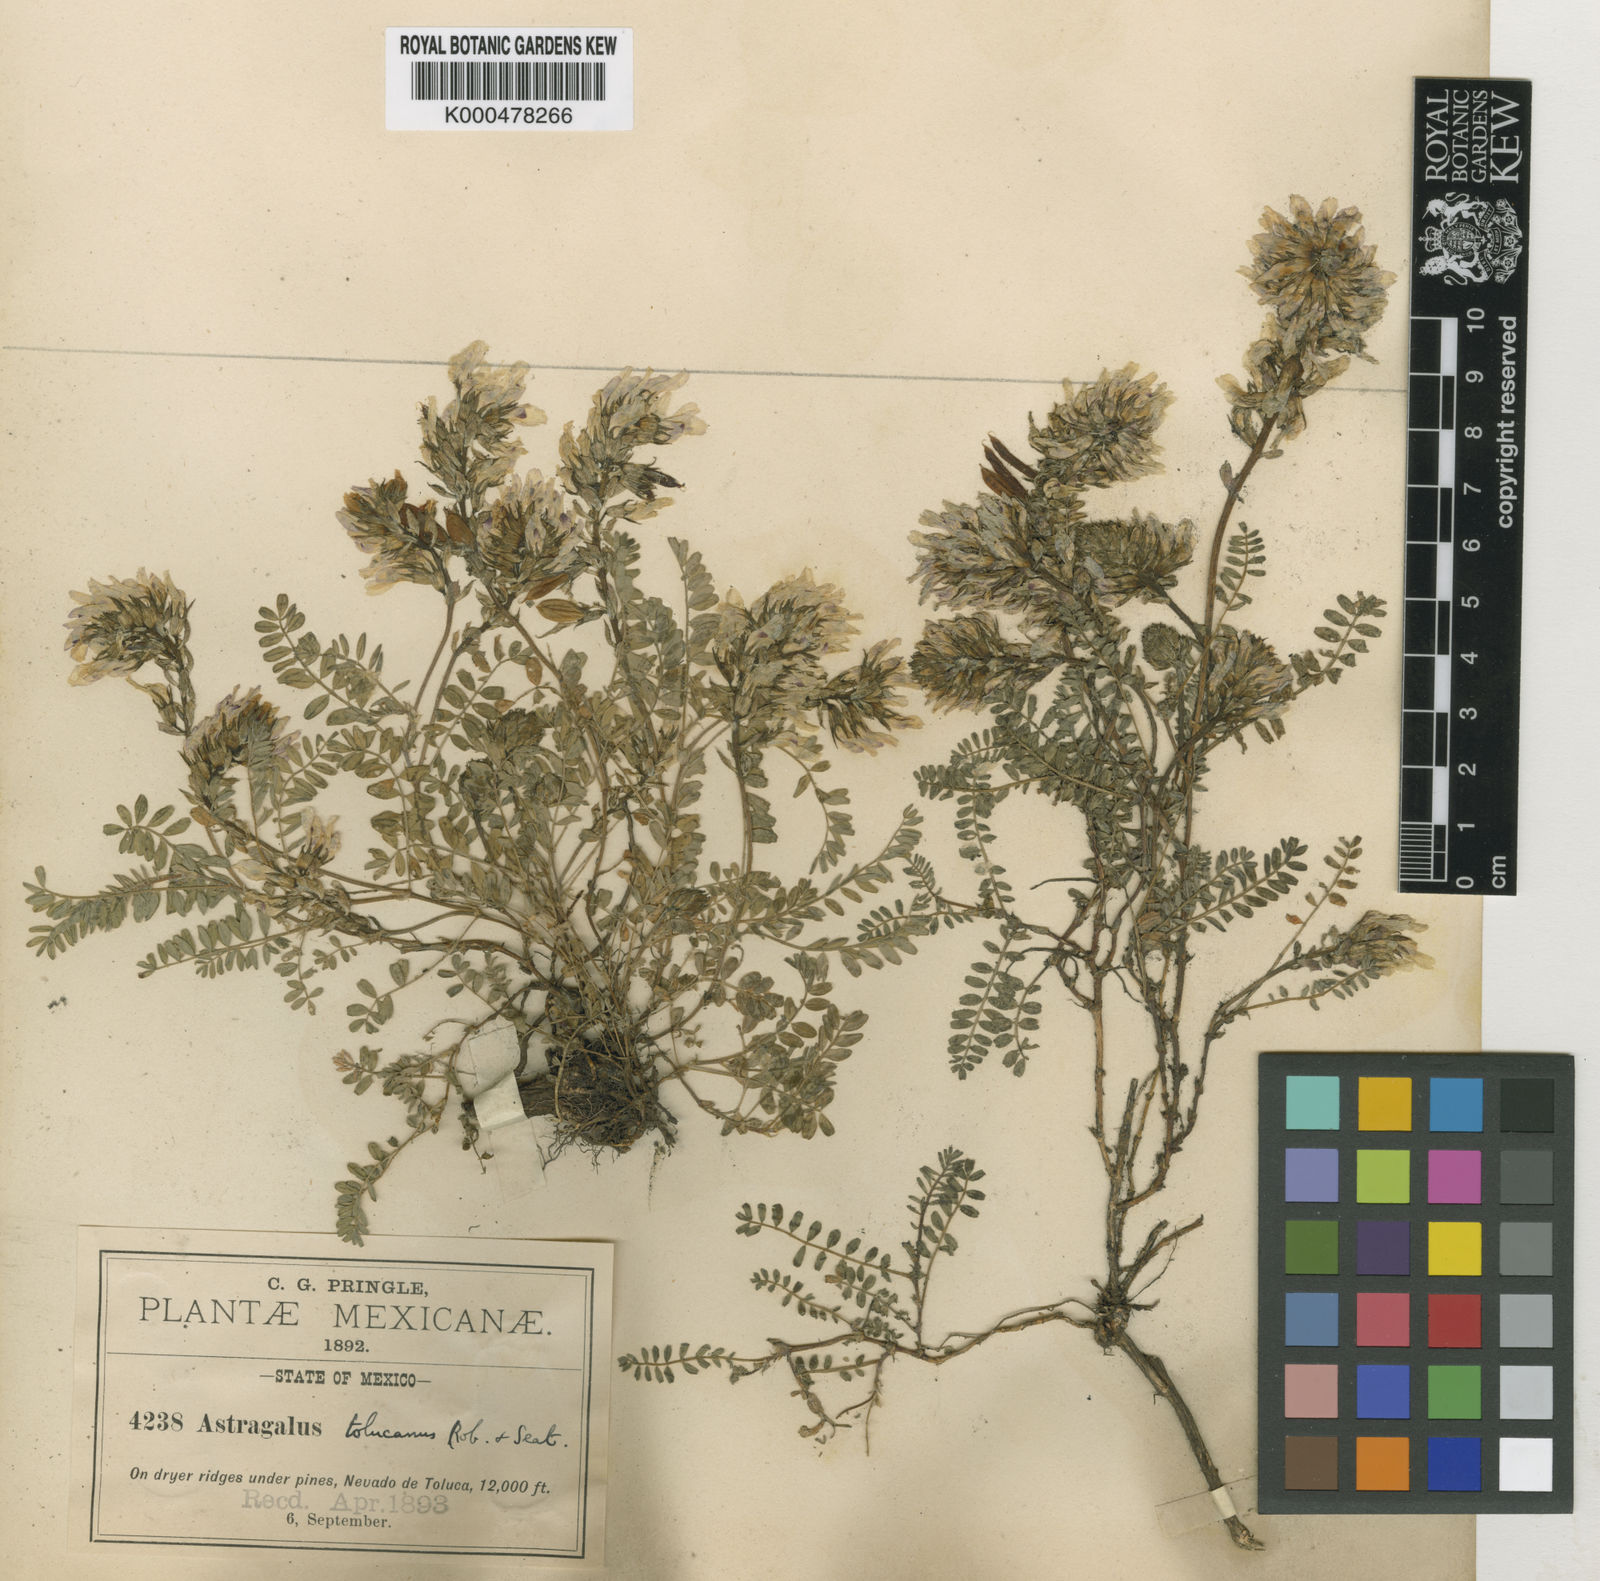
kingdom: Plantae
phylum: Tracheophyta
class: Magnoliopsida
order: Fabales
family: Fabaceae
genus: Astragalus
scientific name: Astragalus tolucanus
